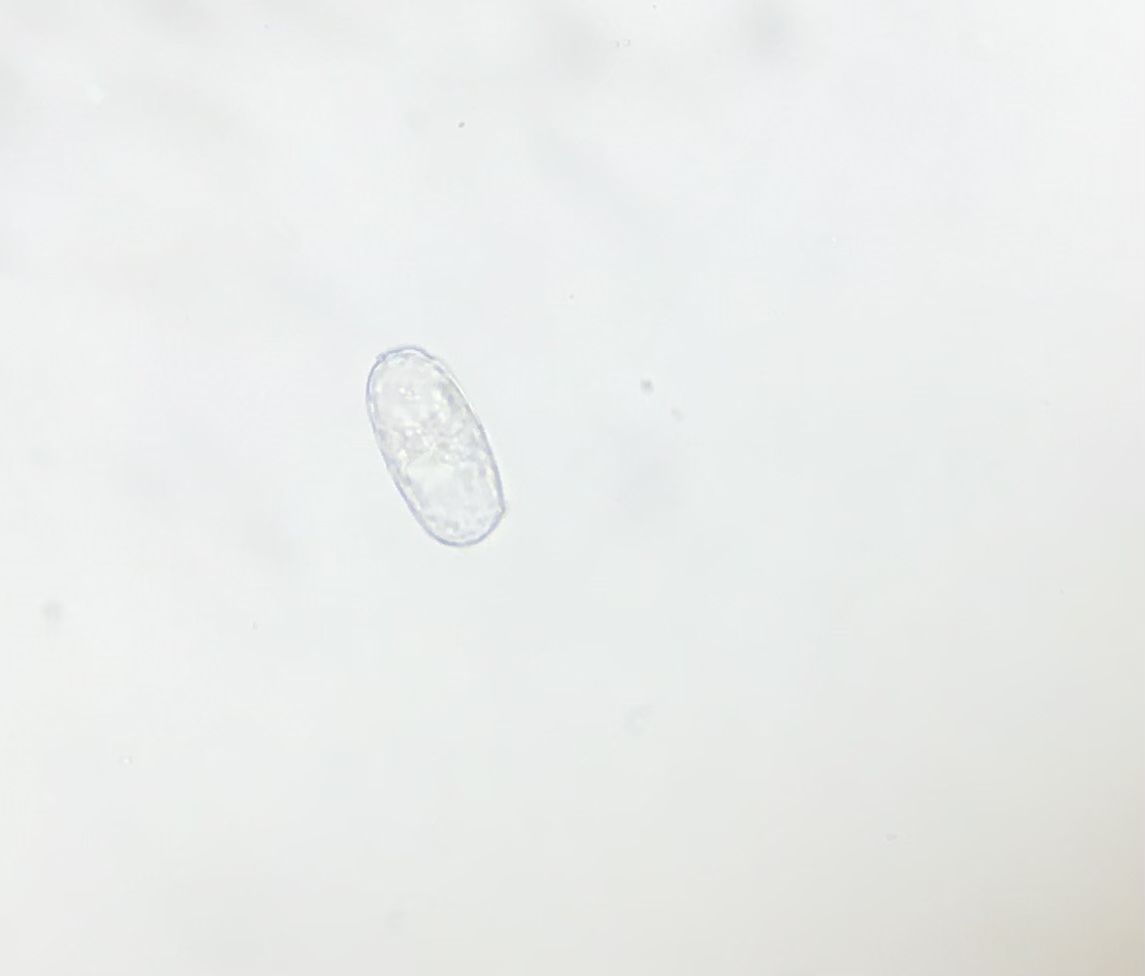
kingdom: Fungi
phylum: Ascomycota
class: Leotiomycetes
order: Helotiales
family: Erysiphaceae
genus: Erysiphe
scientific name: Erysiphe polygoni
